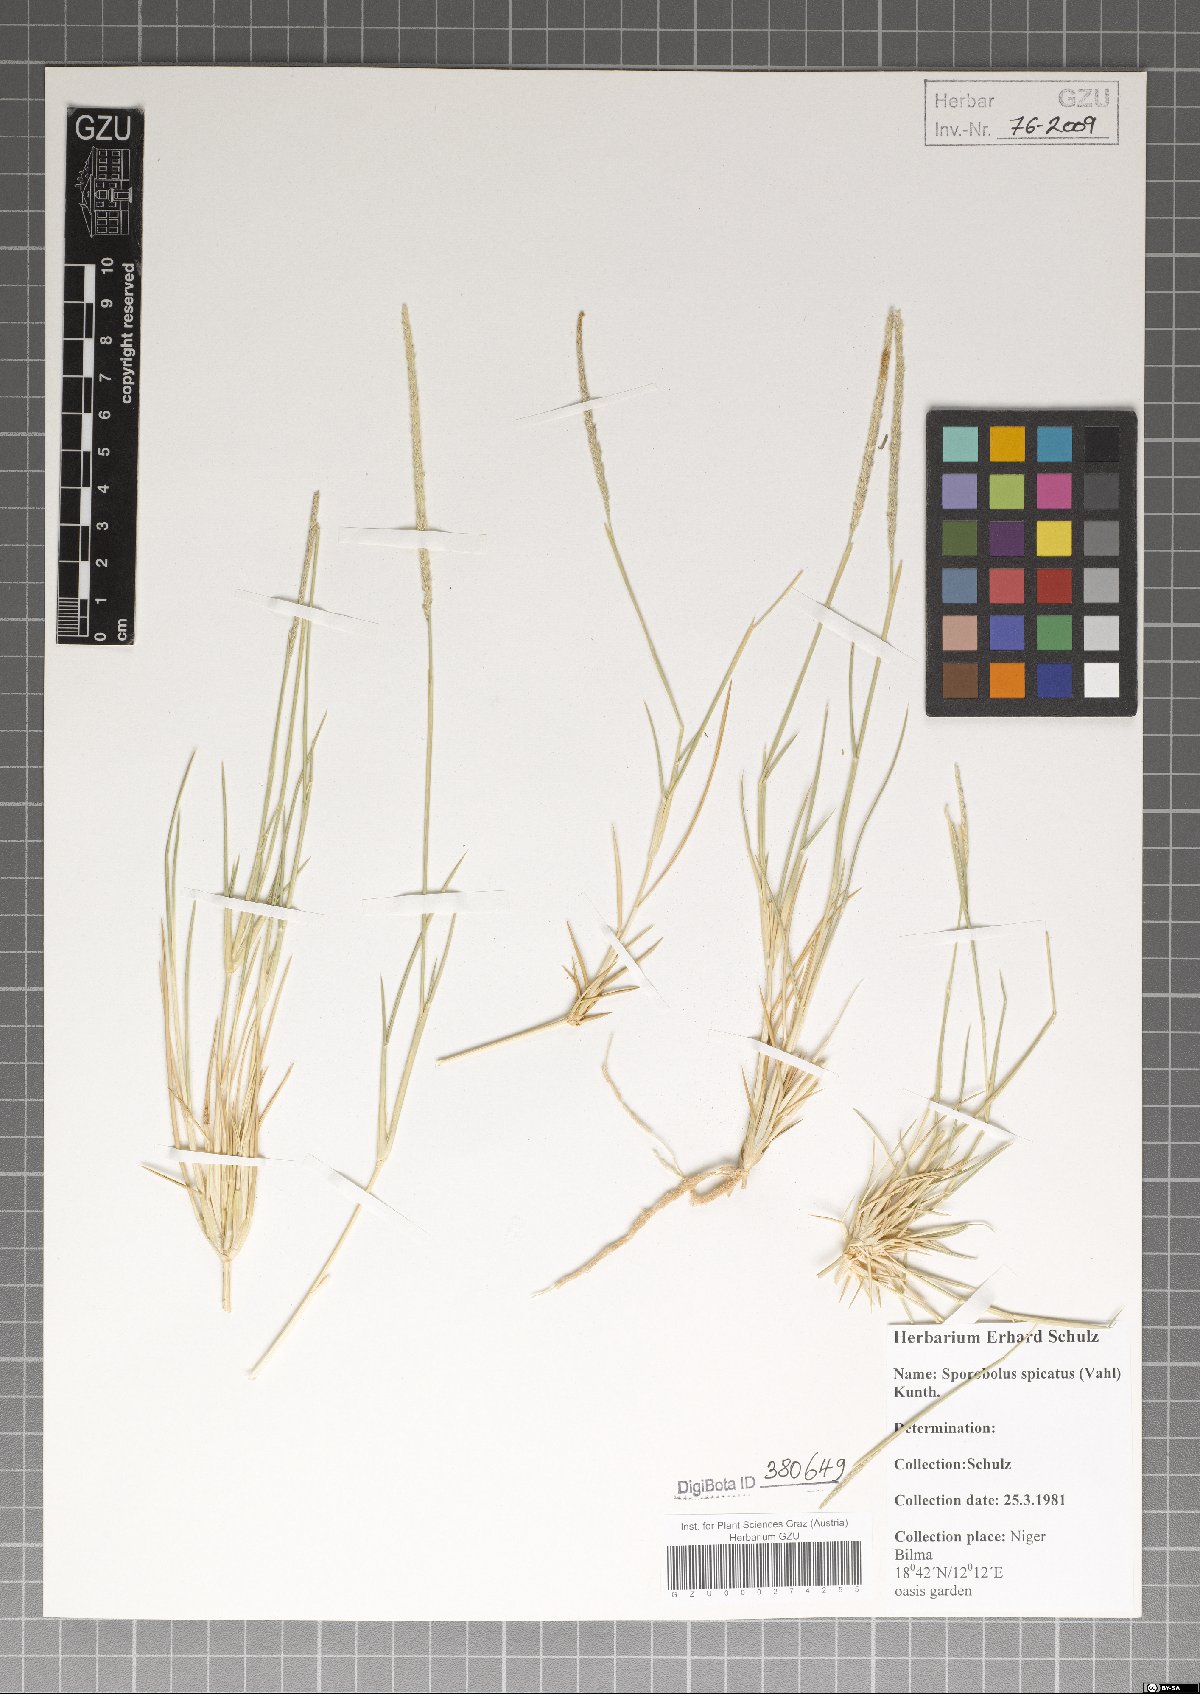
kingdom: Plantae
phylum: Tracheophyta
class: Liliopsida
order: Poales
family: Poaceae
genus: Sporobolus
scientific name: Sporobolus spicatus
